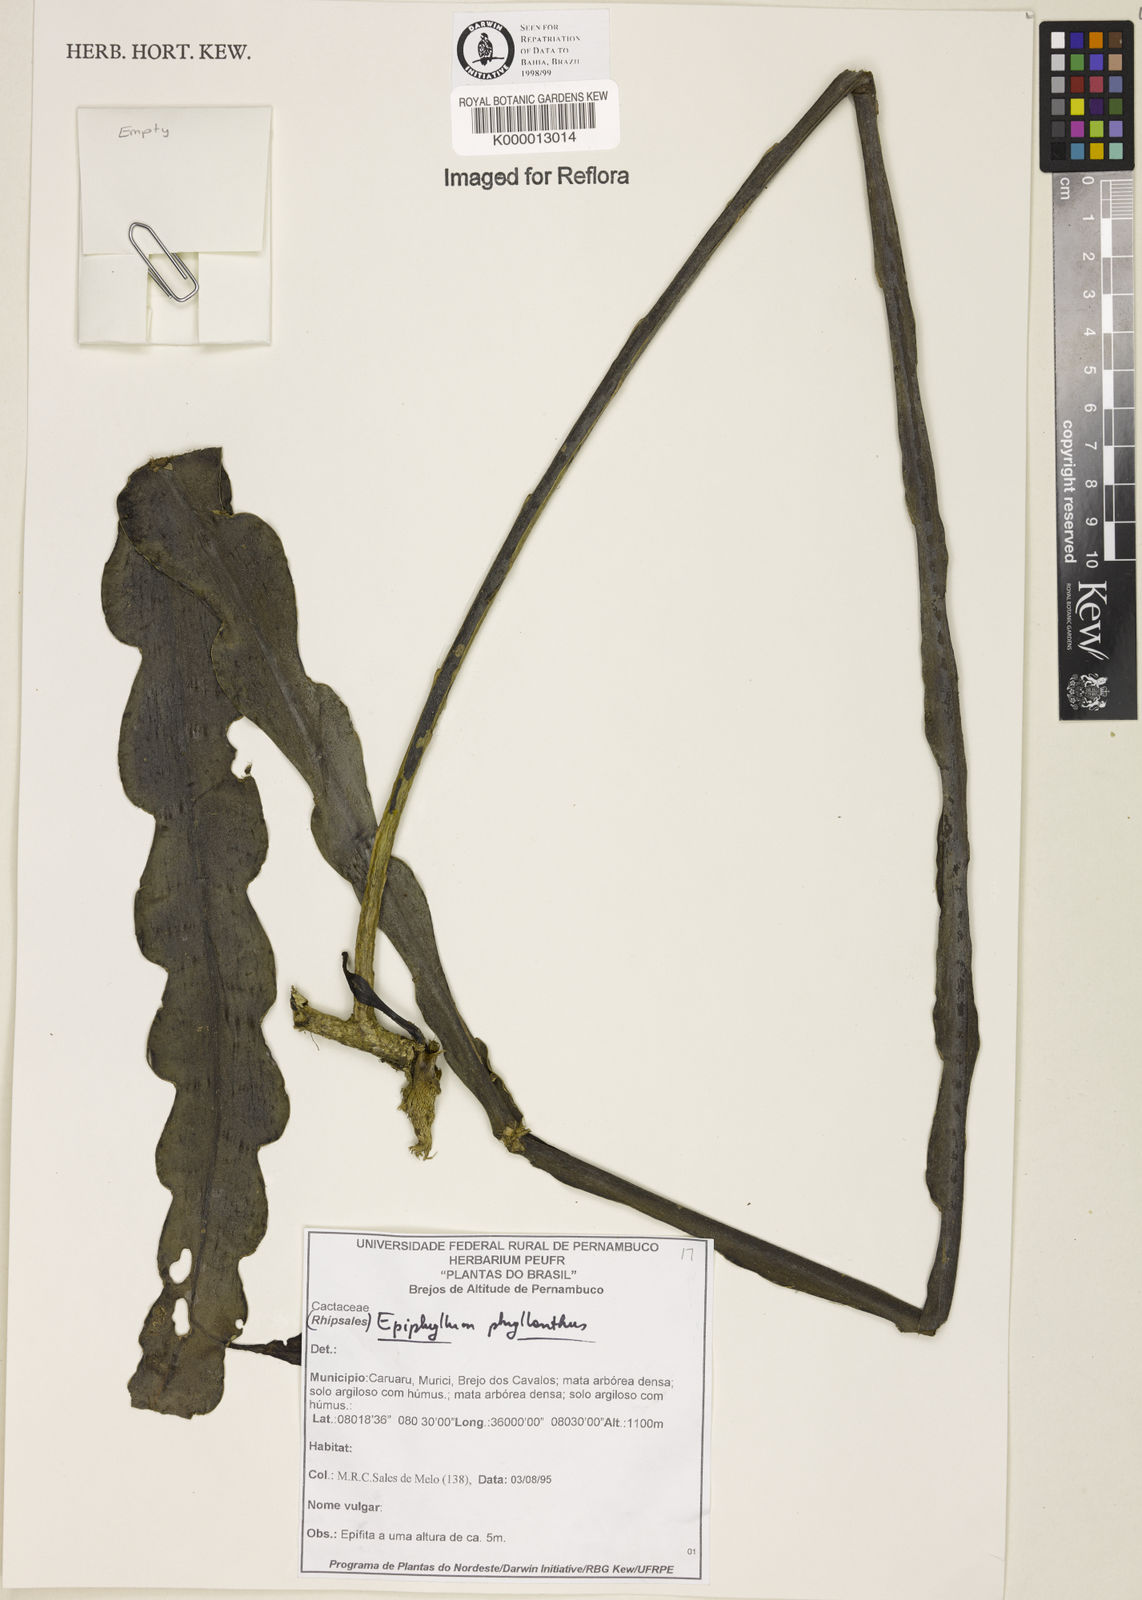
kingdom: Plantae
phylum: Tracheophyta
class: Magnoliopsida
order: Caryophyllales
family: Cactaceae
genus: Epiphyllum
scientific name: Epiphyllum phyllanthus
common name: Climbing cactus
